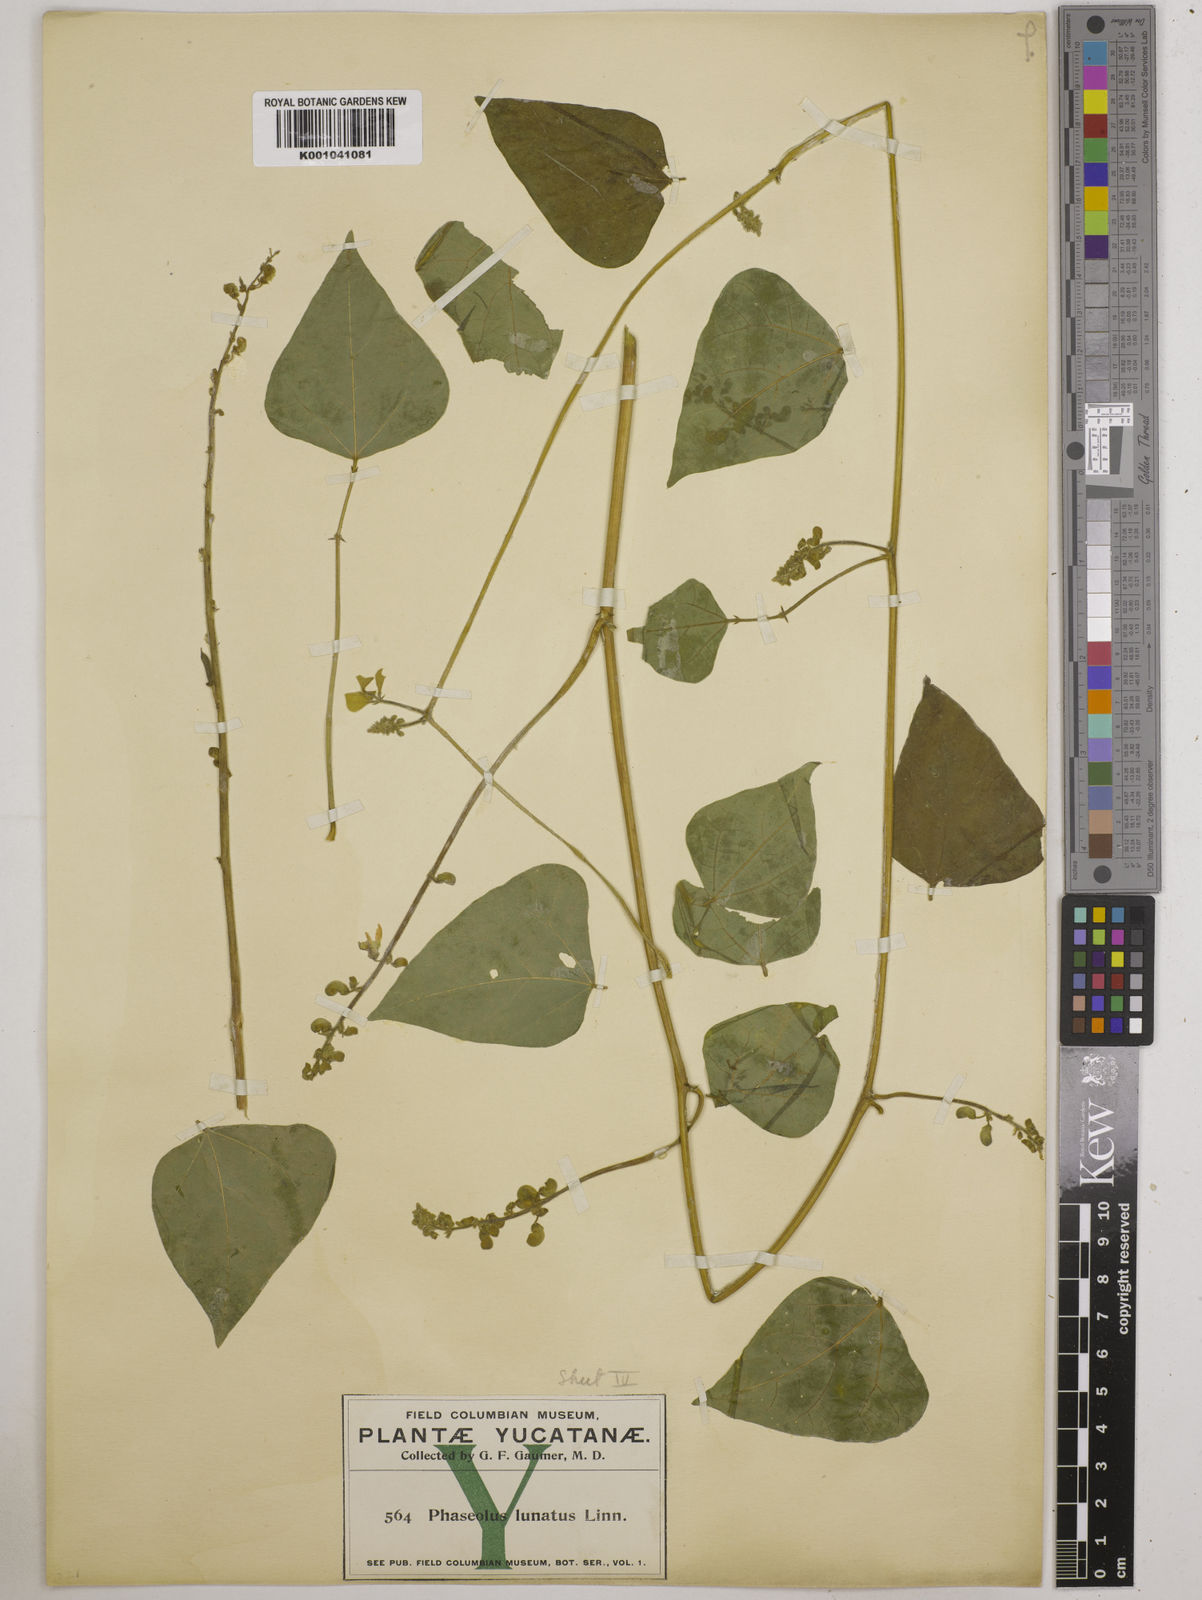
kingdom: Plantae
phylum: Tracheophyta
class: Magnoliopsida
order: Fabales
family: Fabaceae
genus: Phaseolus
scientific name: Phaseolus lunatus
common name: Sieva bean
